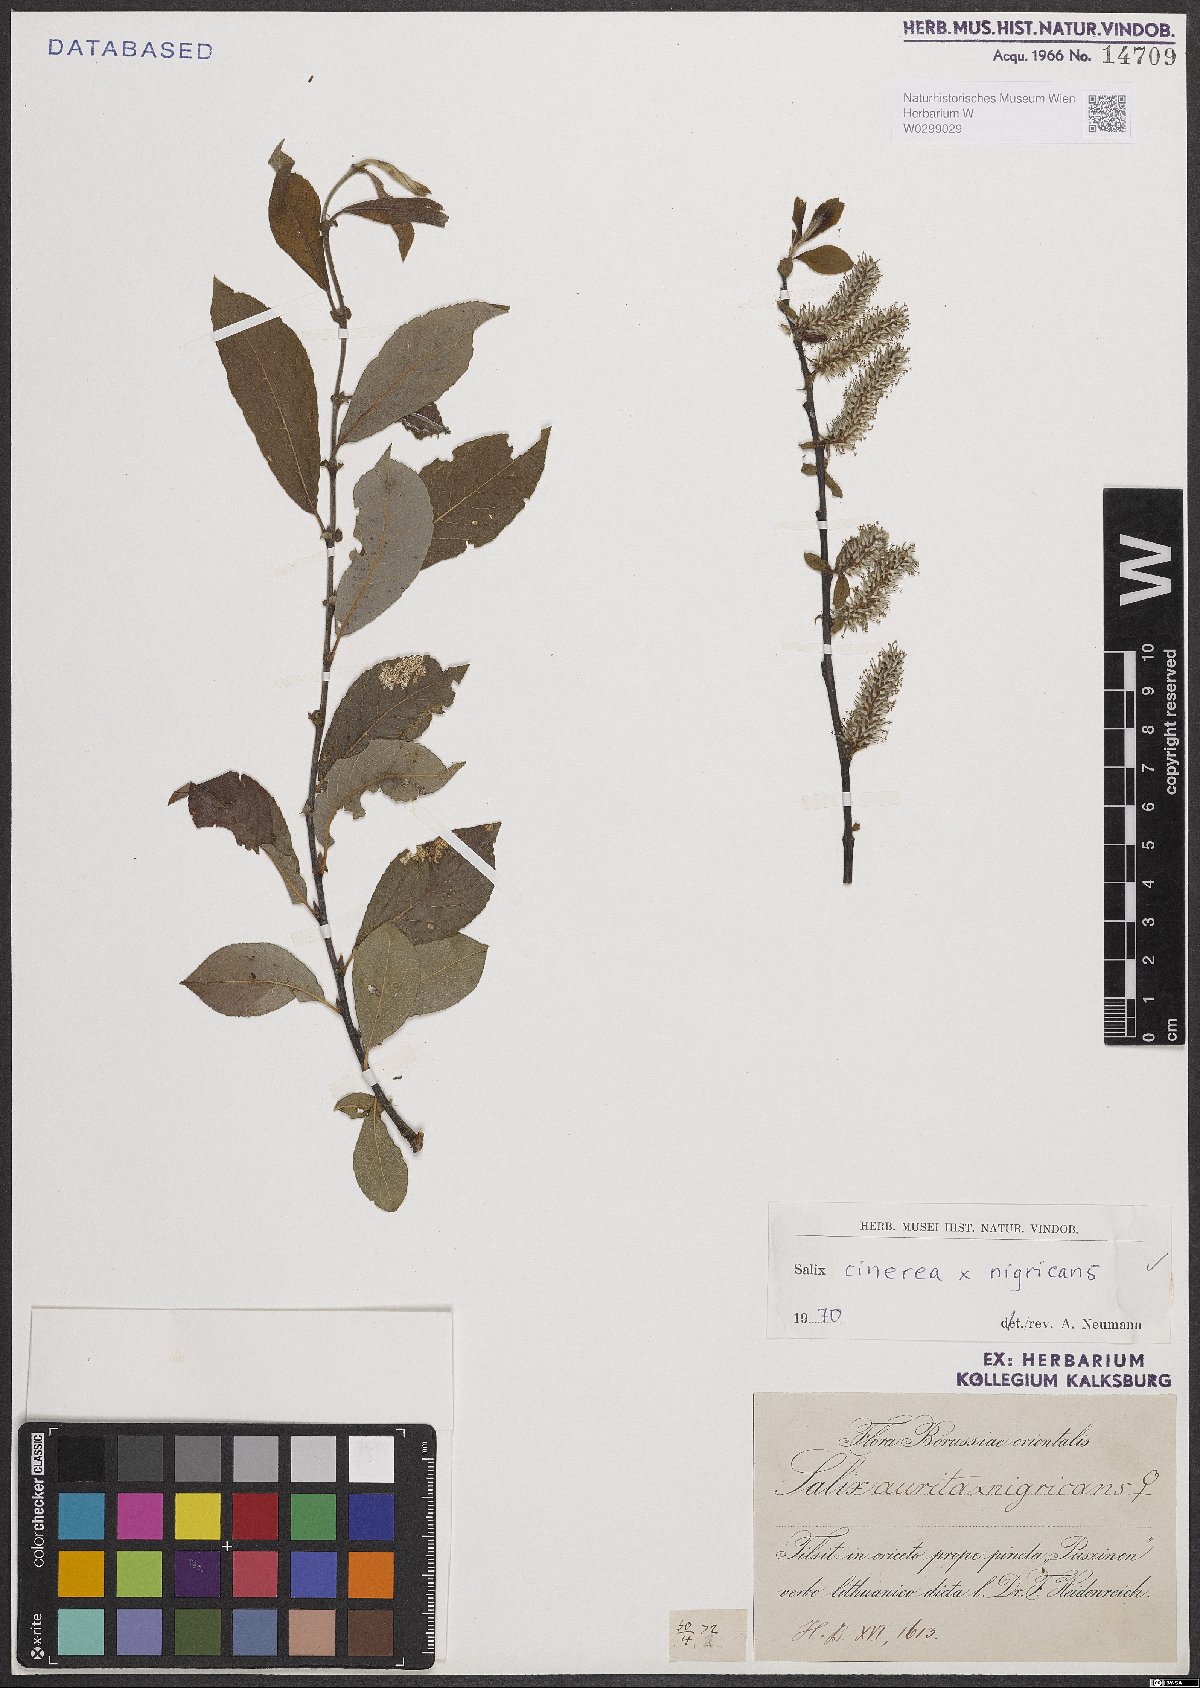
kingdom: Plantae
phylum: Tracheophyta
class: Magnoliopsida
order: Malpighiales
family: Salicaceae
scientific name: Salicaceae
